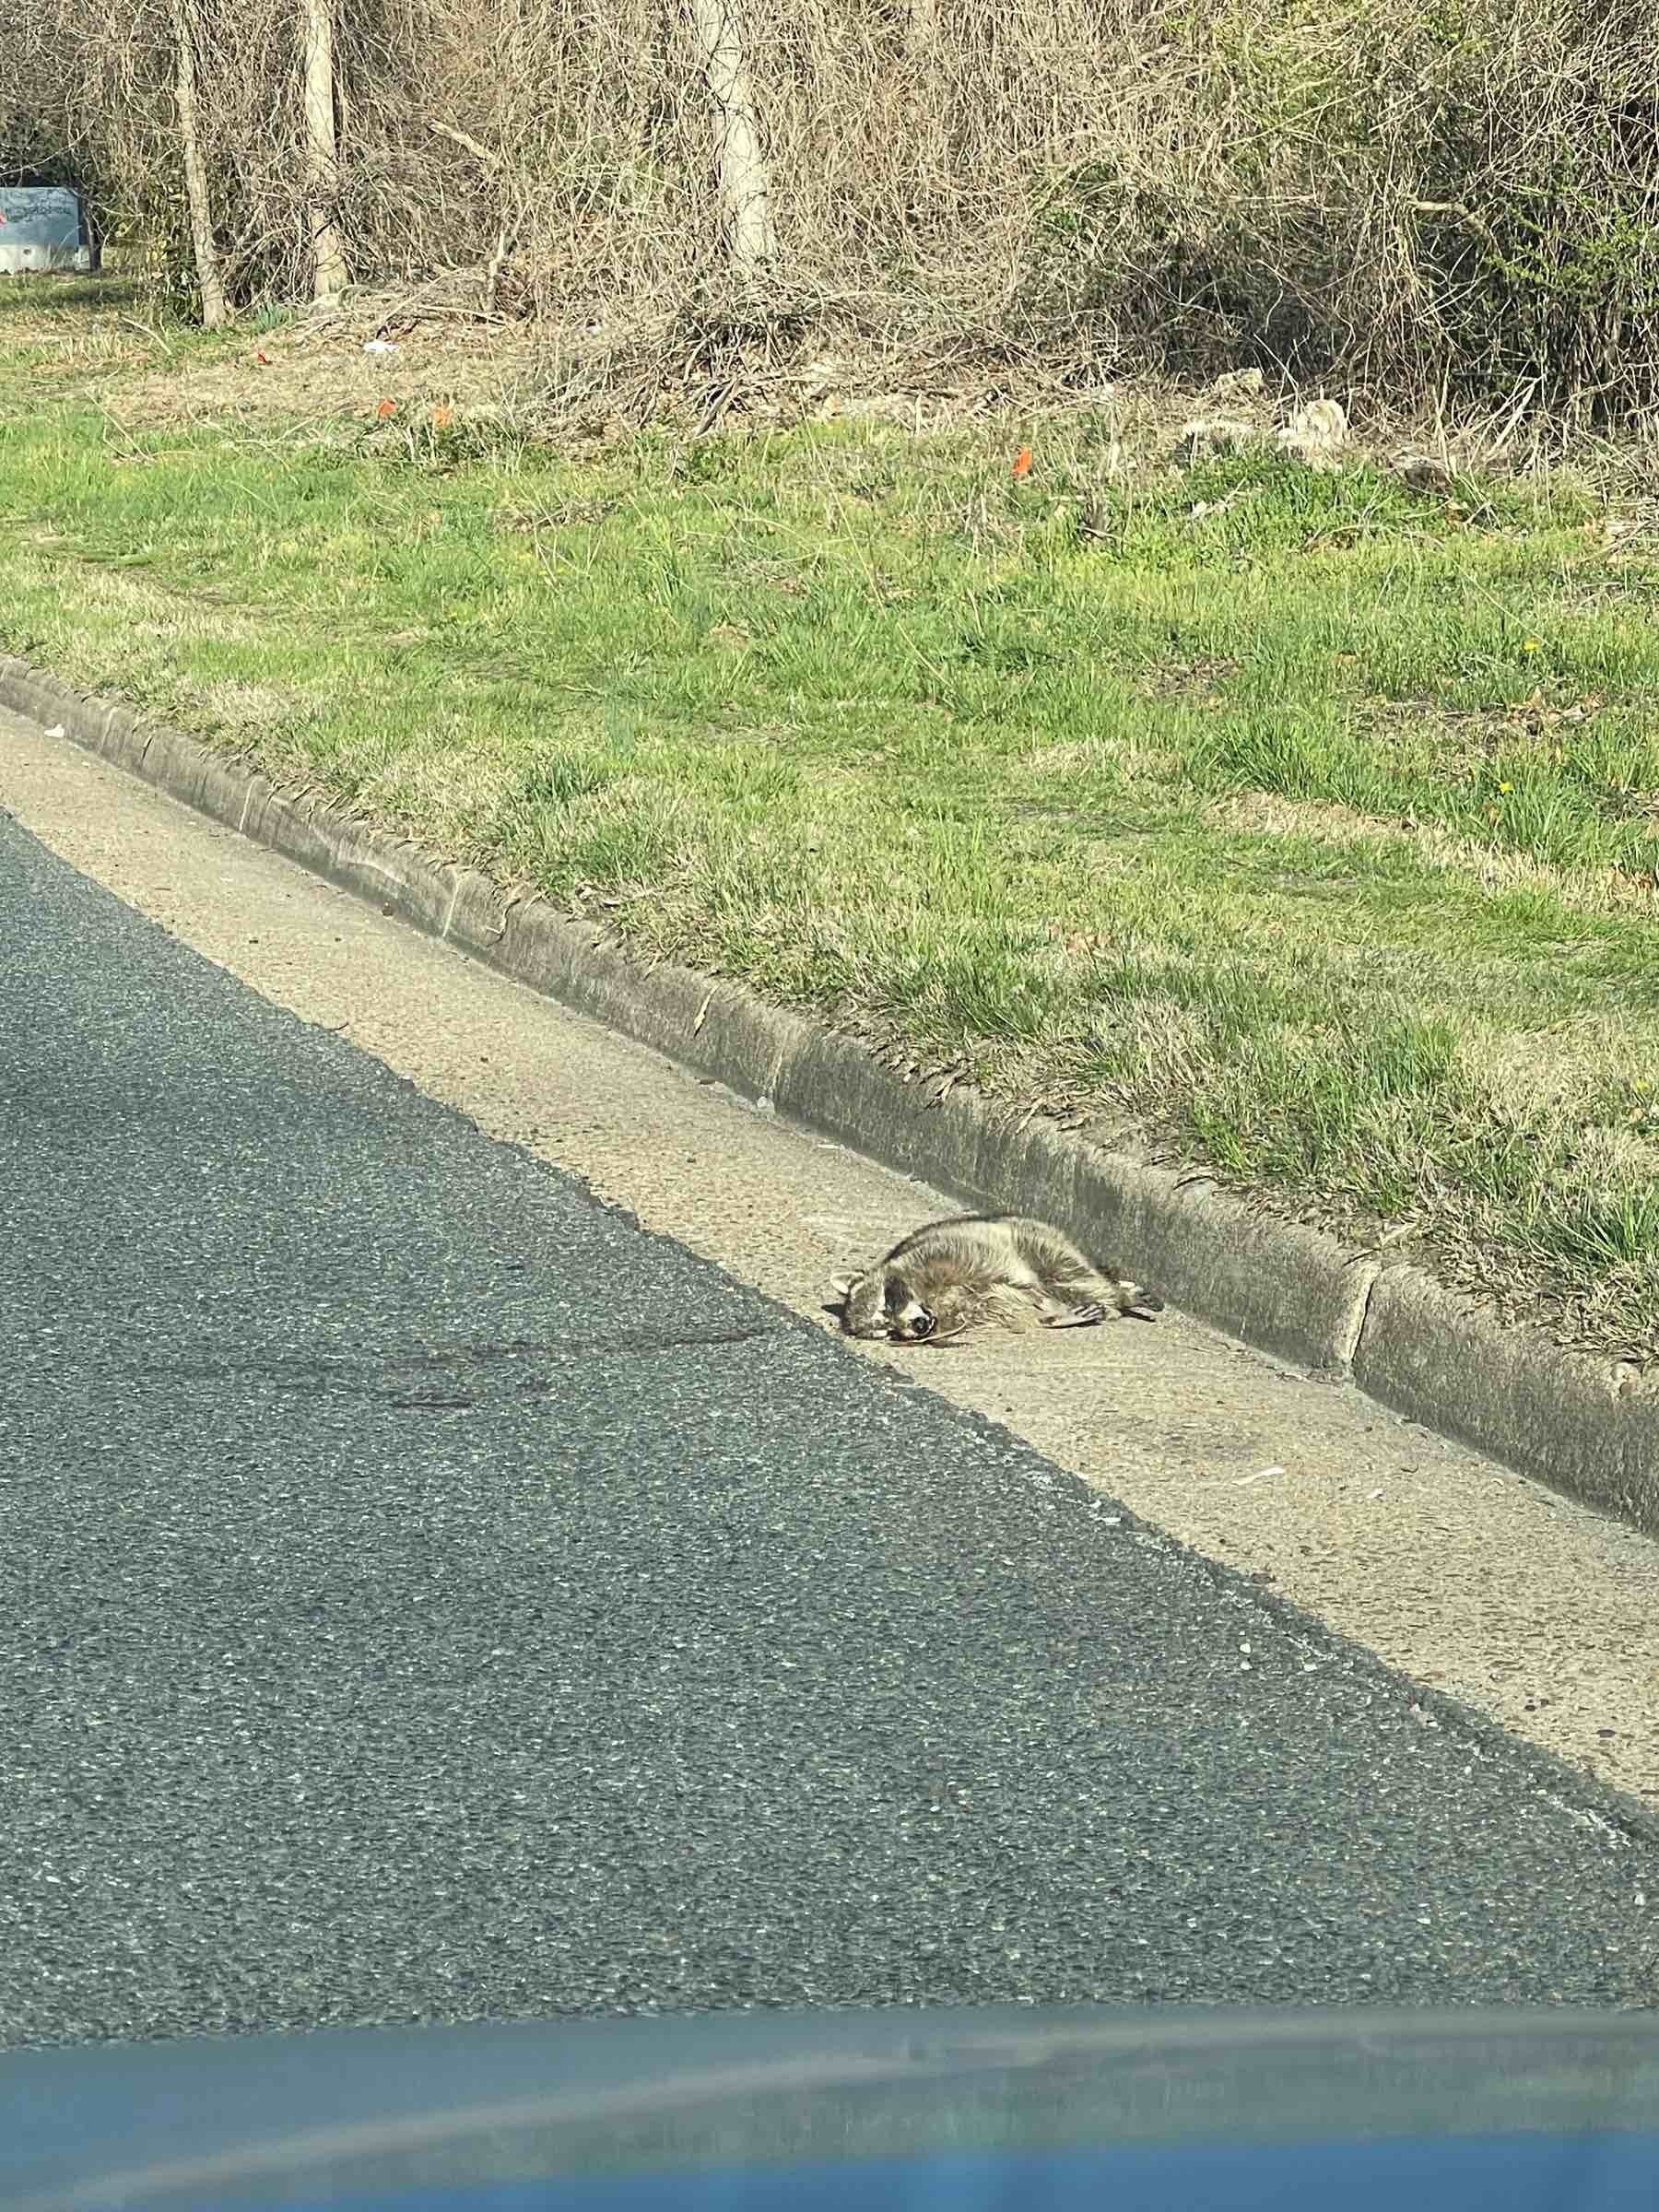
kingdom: Animalia
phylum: Chordata
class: Mammalia
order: Carnivora
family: Procyonidae
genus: Procyon
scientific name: Procyon lotor
